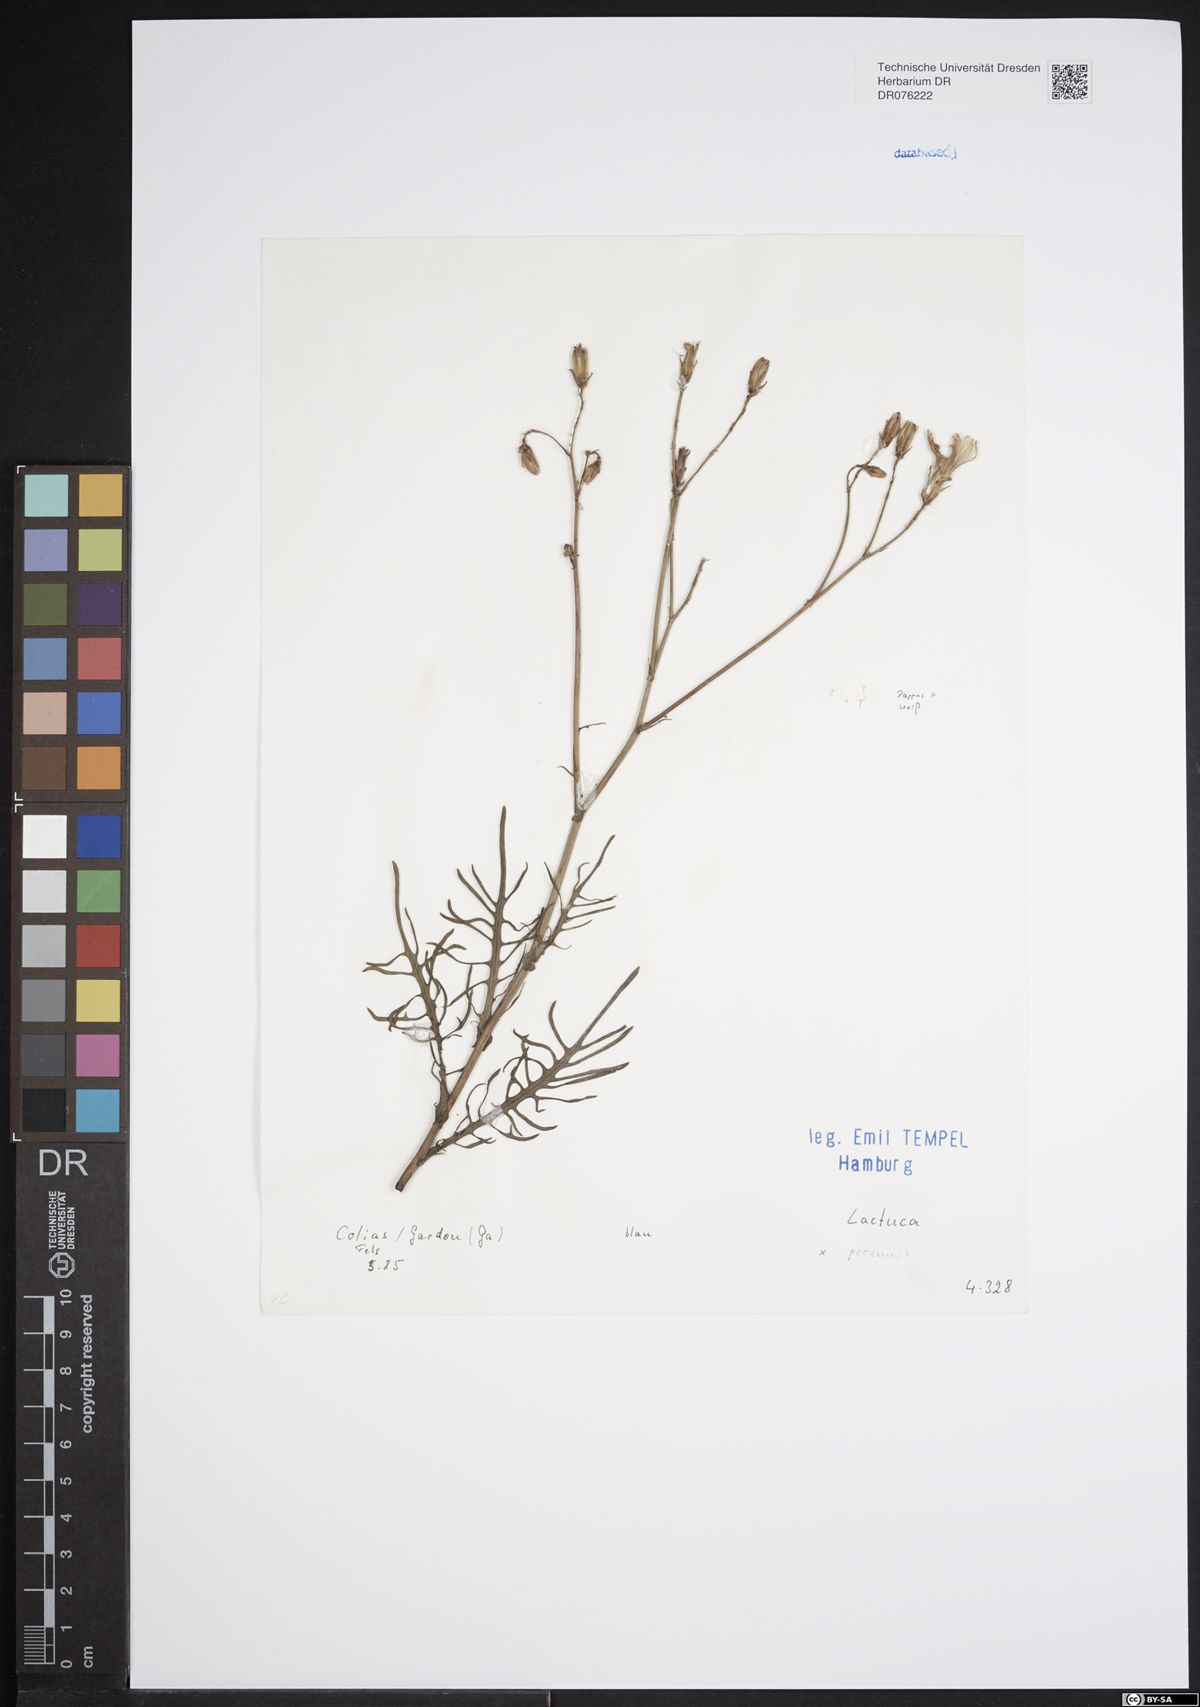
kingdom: Plantae
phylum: Tracheophyta
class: Magnoliopsida
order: Asterales
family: Asteraceae
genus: Lactuca
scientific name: Lactuca perennis
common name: Mountain lettuce
